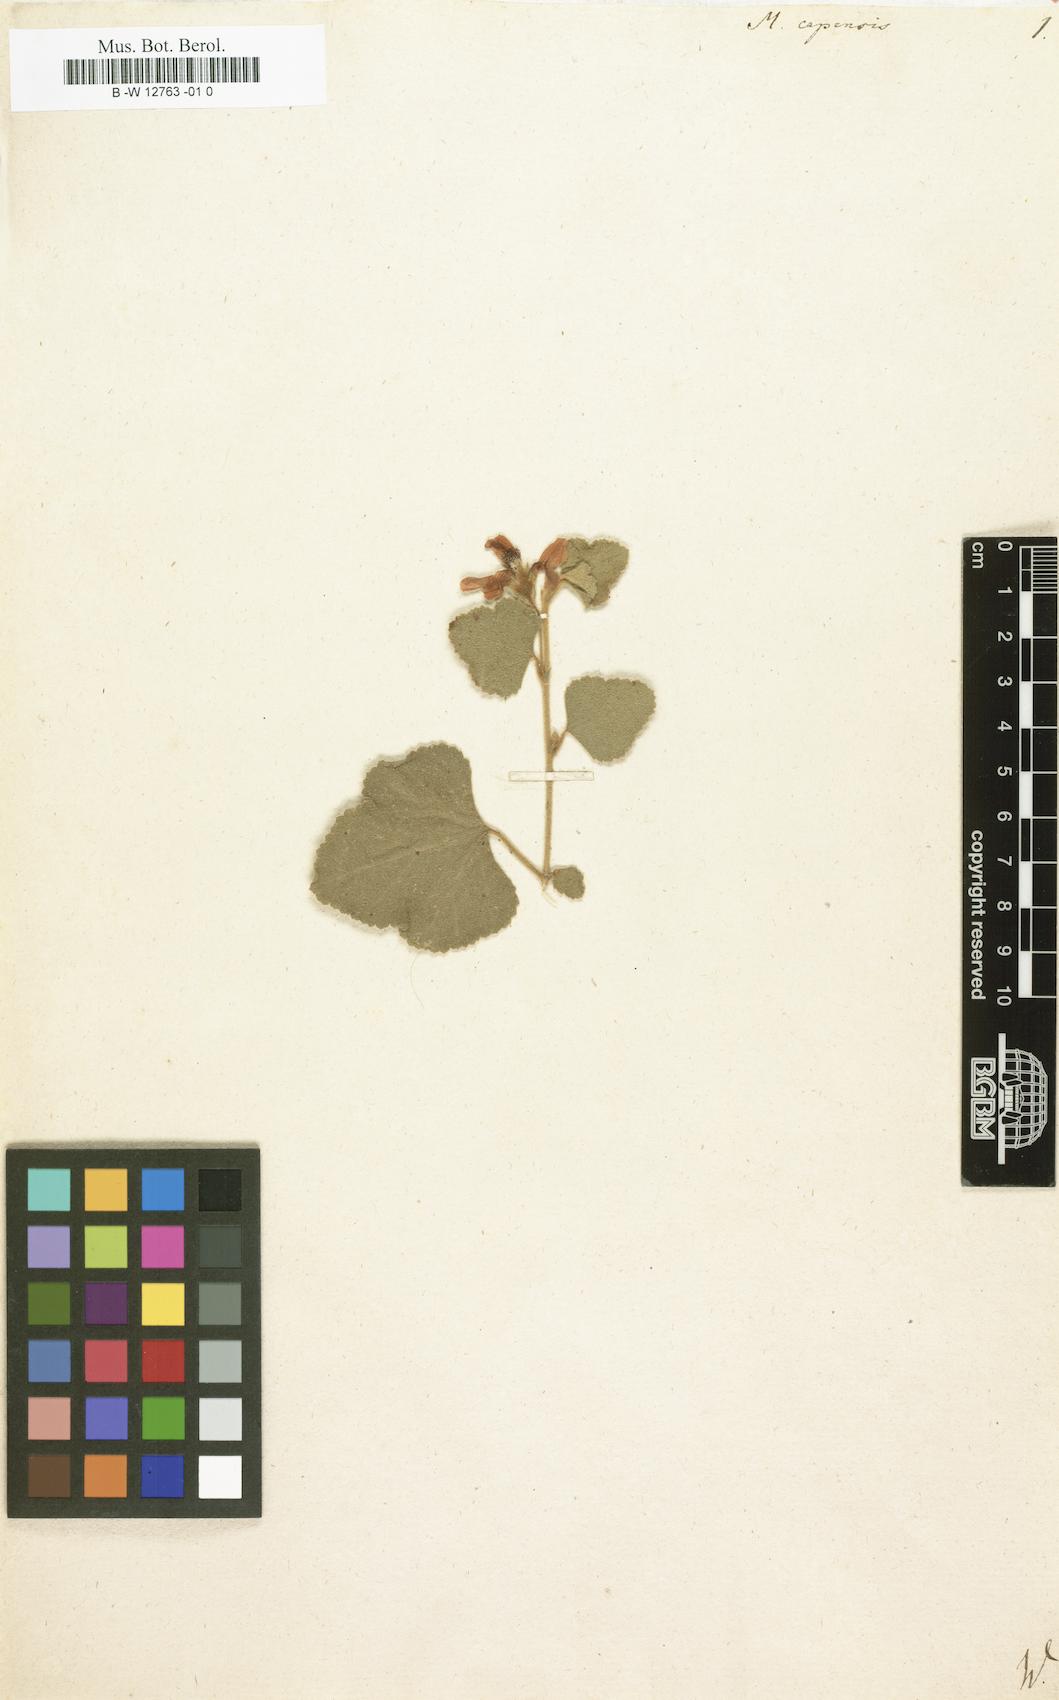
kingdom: Plantae
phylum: Tracheophyta
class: Magnoliopsida
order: Malvales
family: Malvaceae
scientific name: Malvaceae
